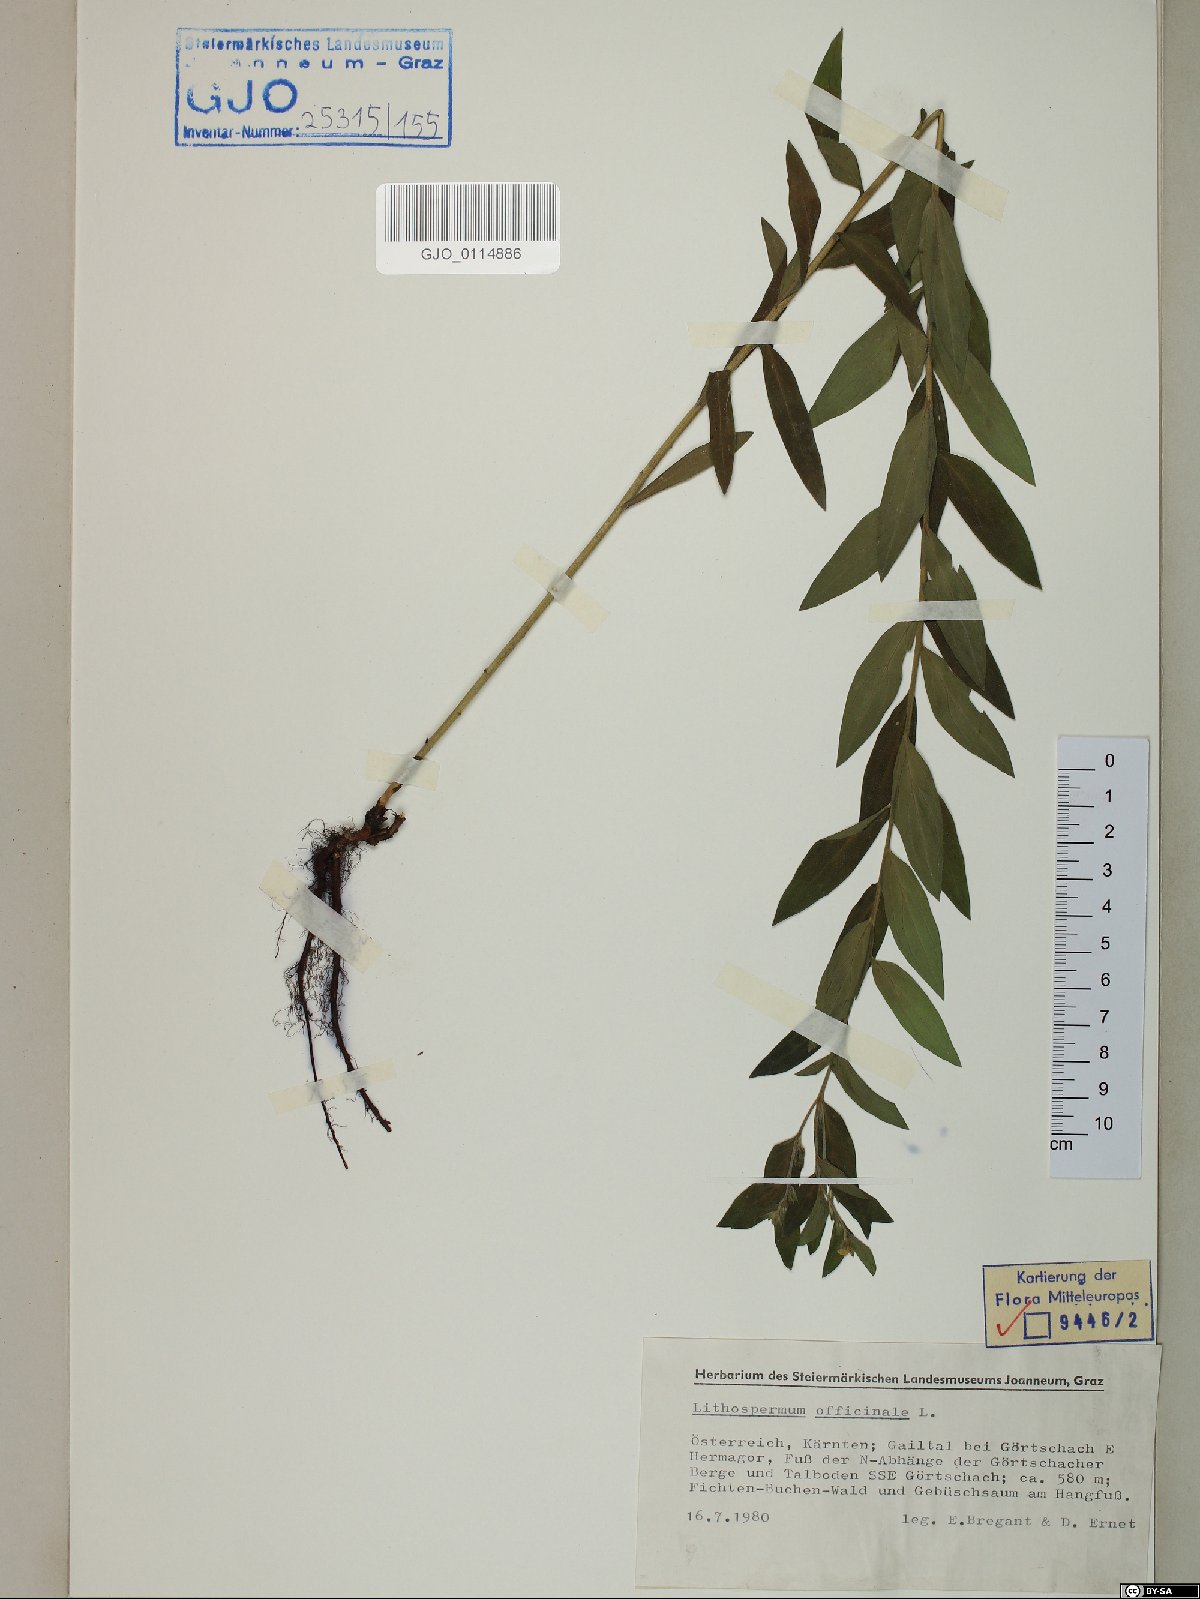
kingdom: Plantae
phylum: Tracheophyta
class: Magnoliopsida
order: Boraginales
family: Boraginaceae
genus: Lithospermum
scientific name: Lithospermum officinale
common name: Common gromwell
